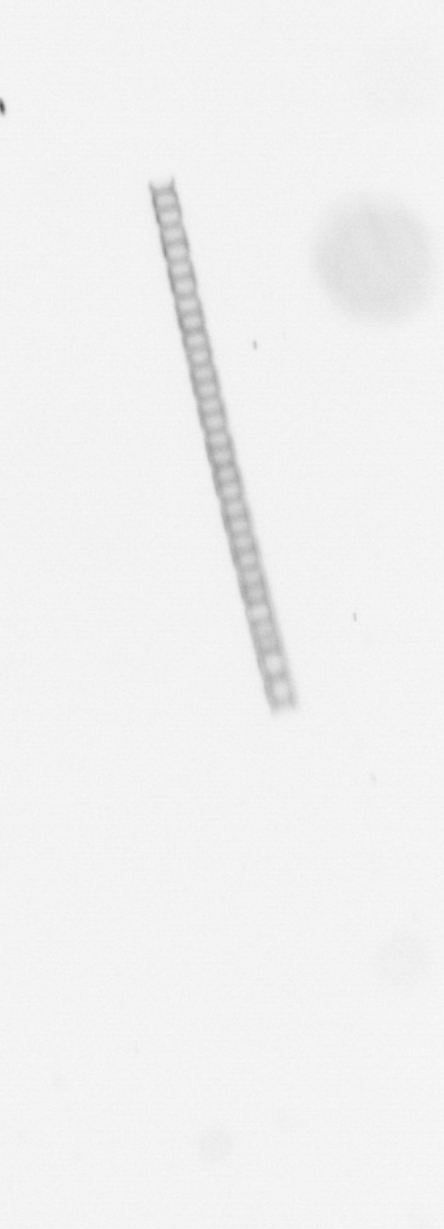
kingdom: Chromista
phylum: Ochrophyta
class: Bacillariophyceae
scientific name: Bacillariophyceae
